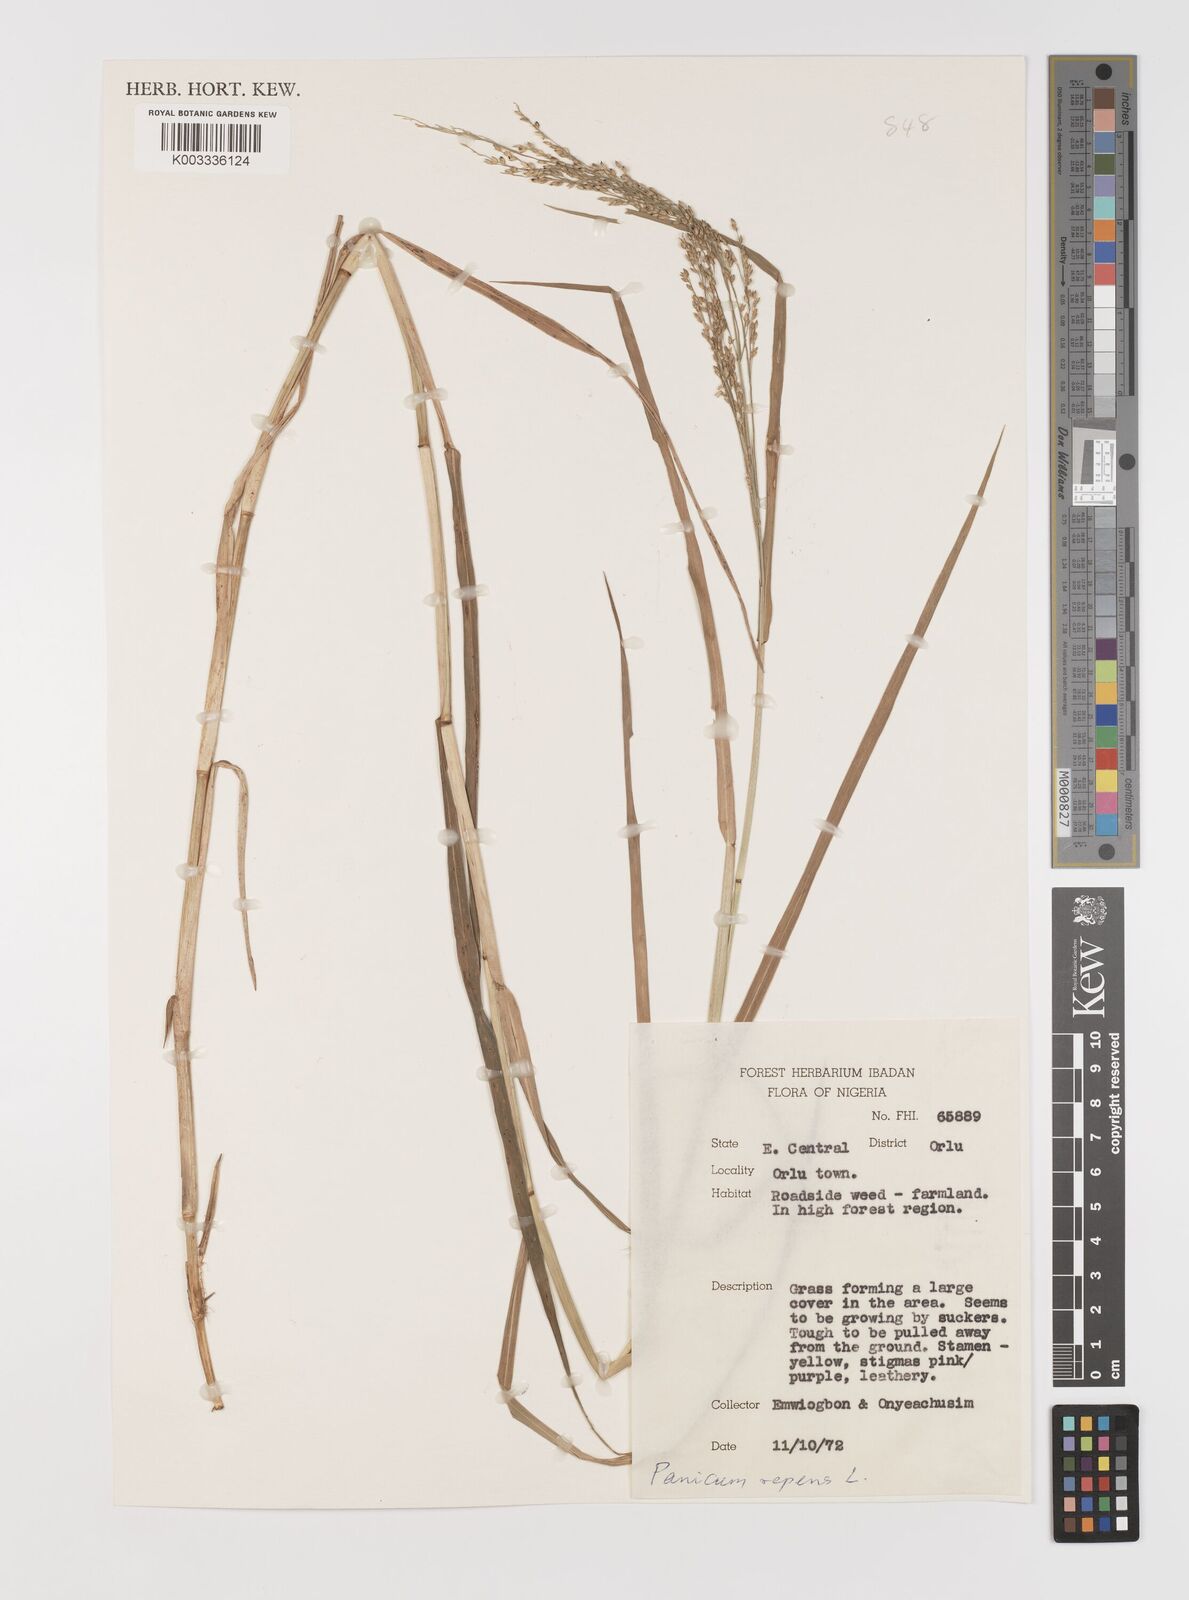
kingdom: Plantae
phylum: Tracheophyta
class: Liliopsida
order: Poales
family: Poaceae
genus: Panicum
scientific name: Panicum repens
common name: Torpedo grass
